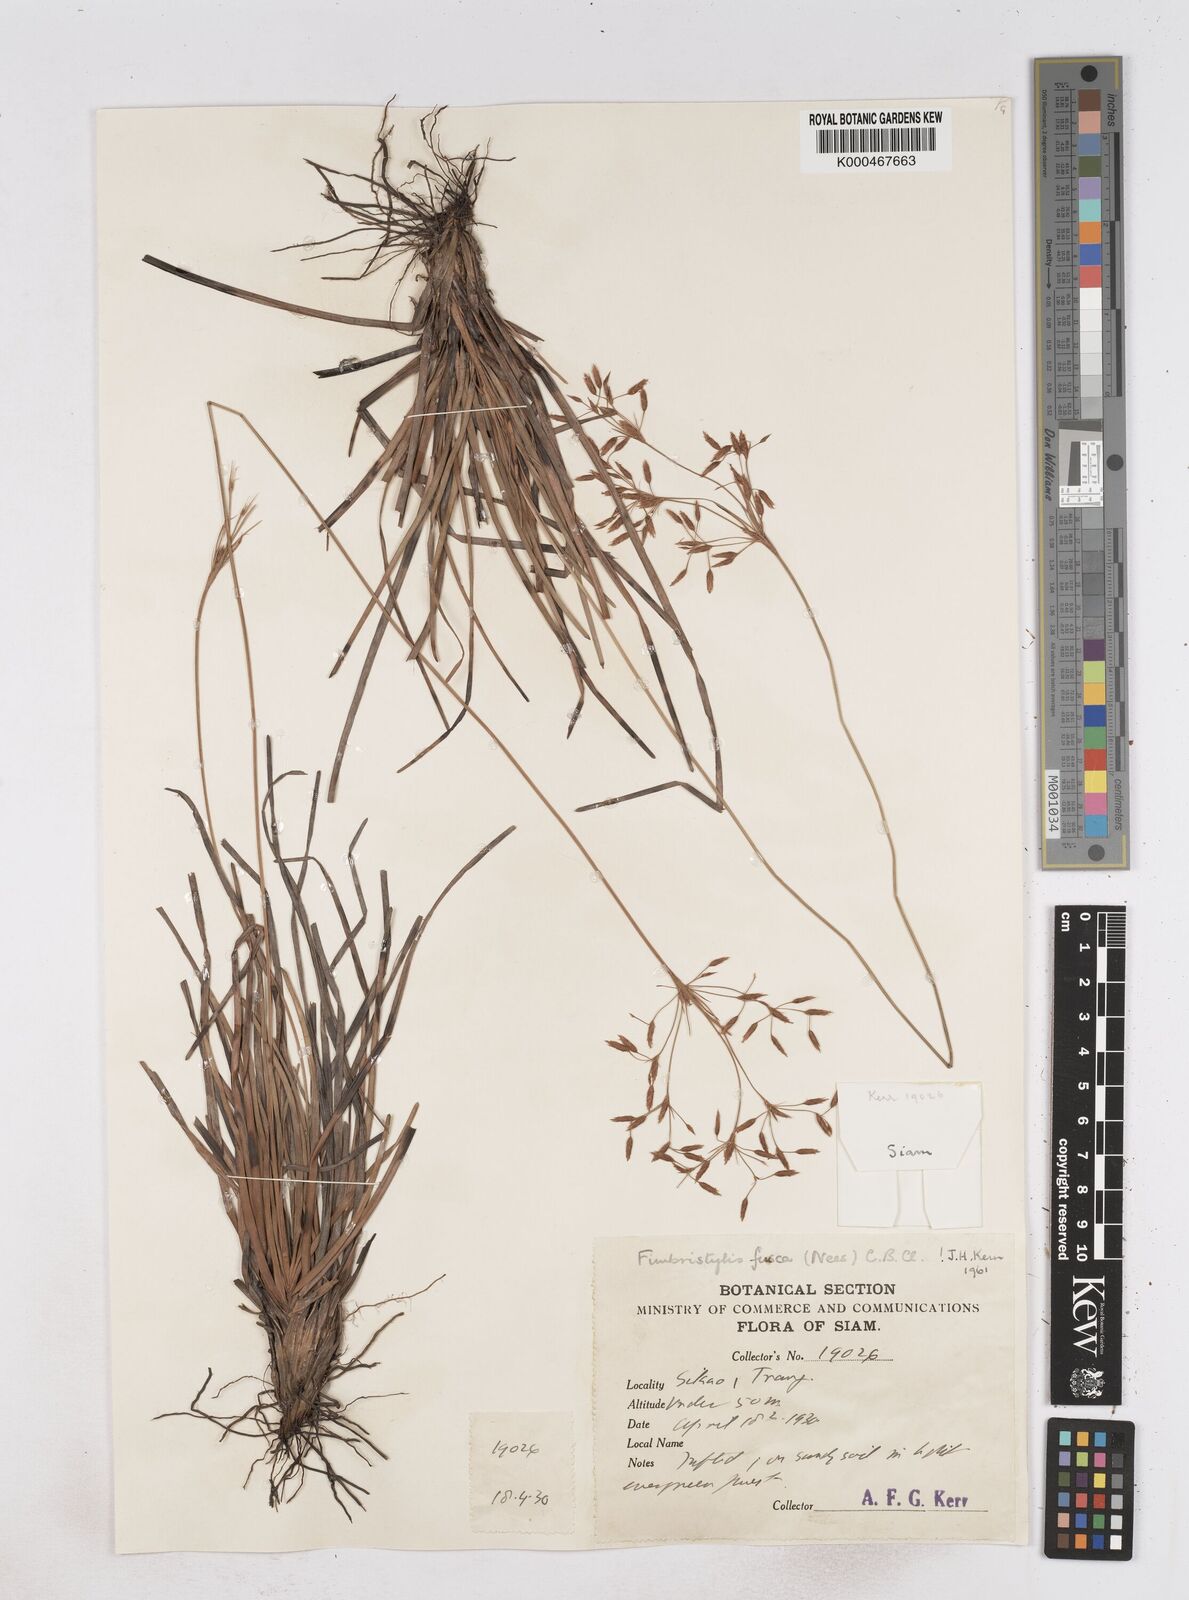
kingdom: Plantae
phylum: Tracheophyta
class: Liliopsida
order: Poales
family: Cyperaceae
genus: Fimbristylis
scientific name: Fimbristylis fusca
